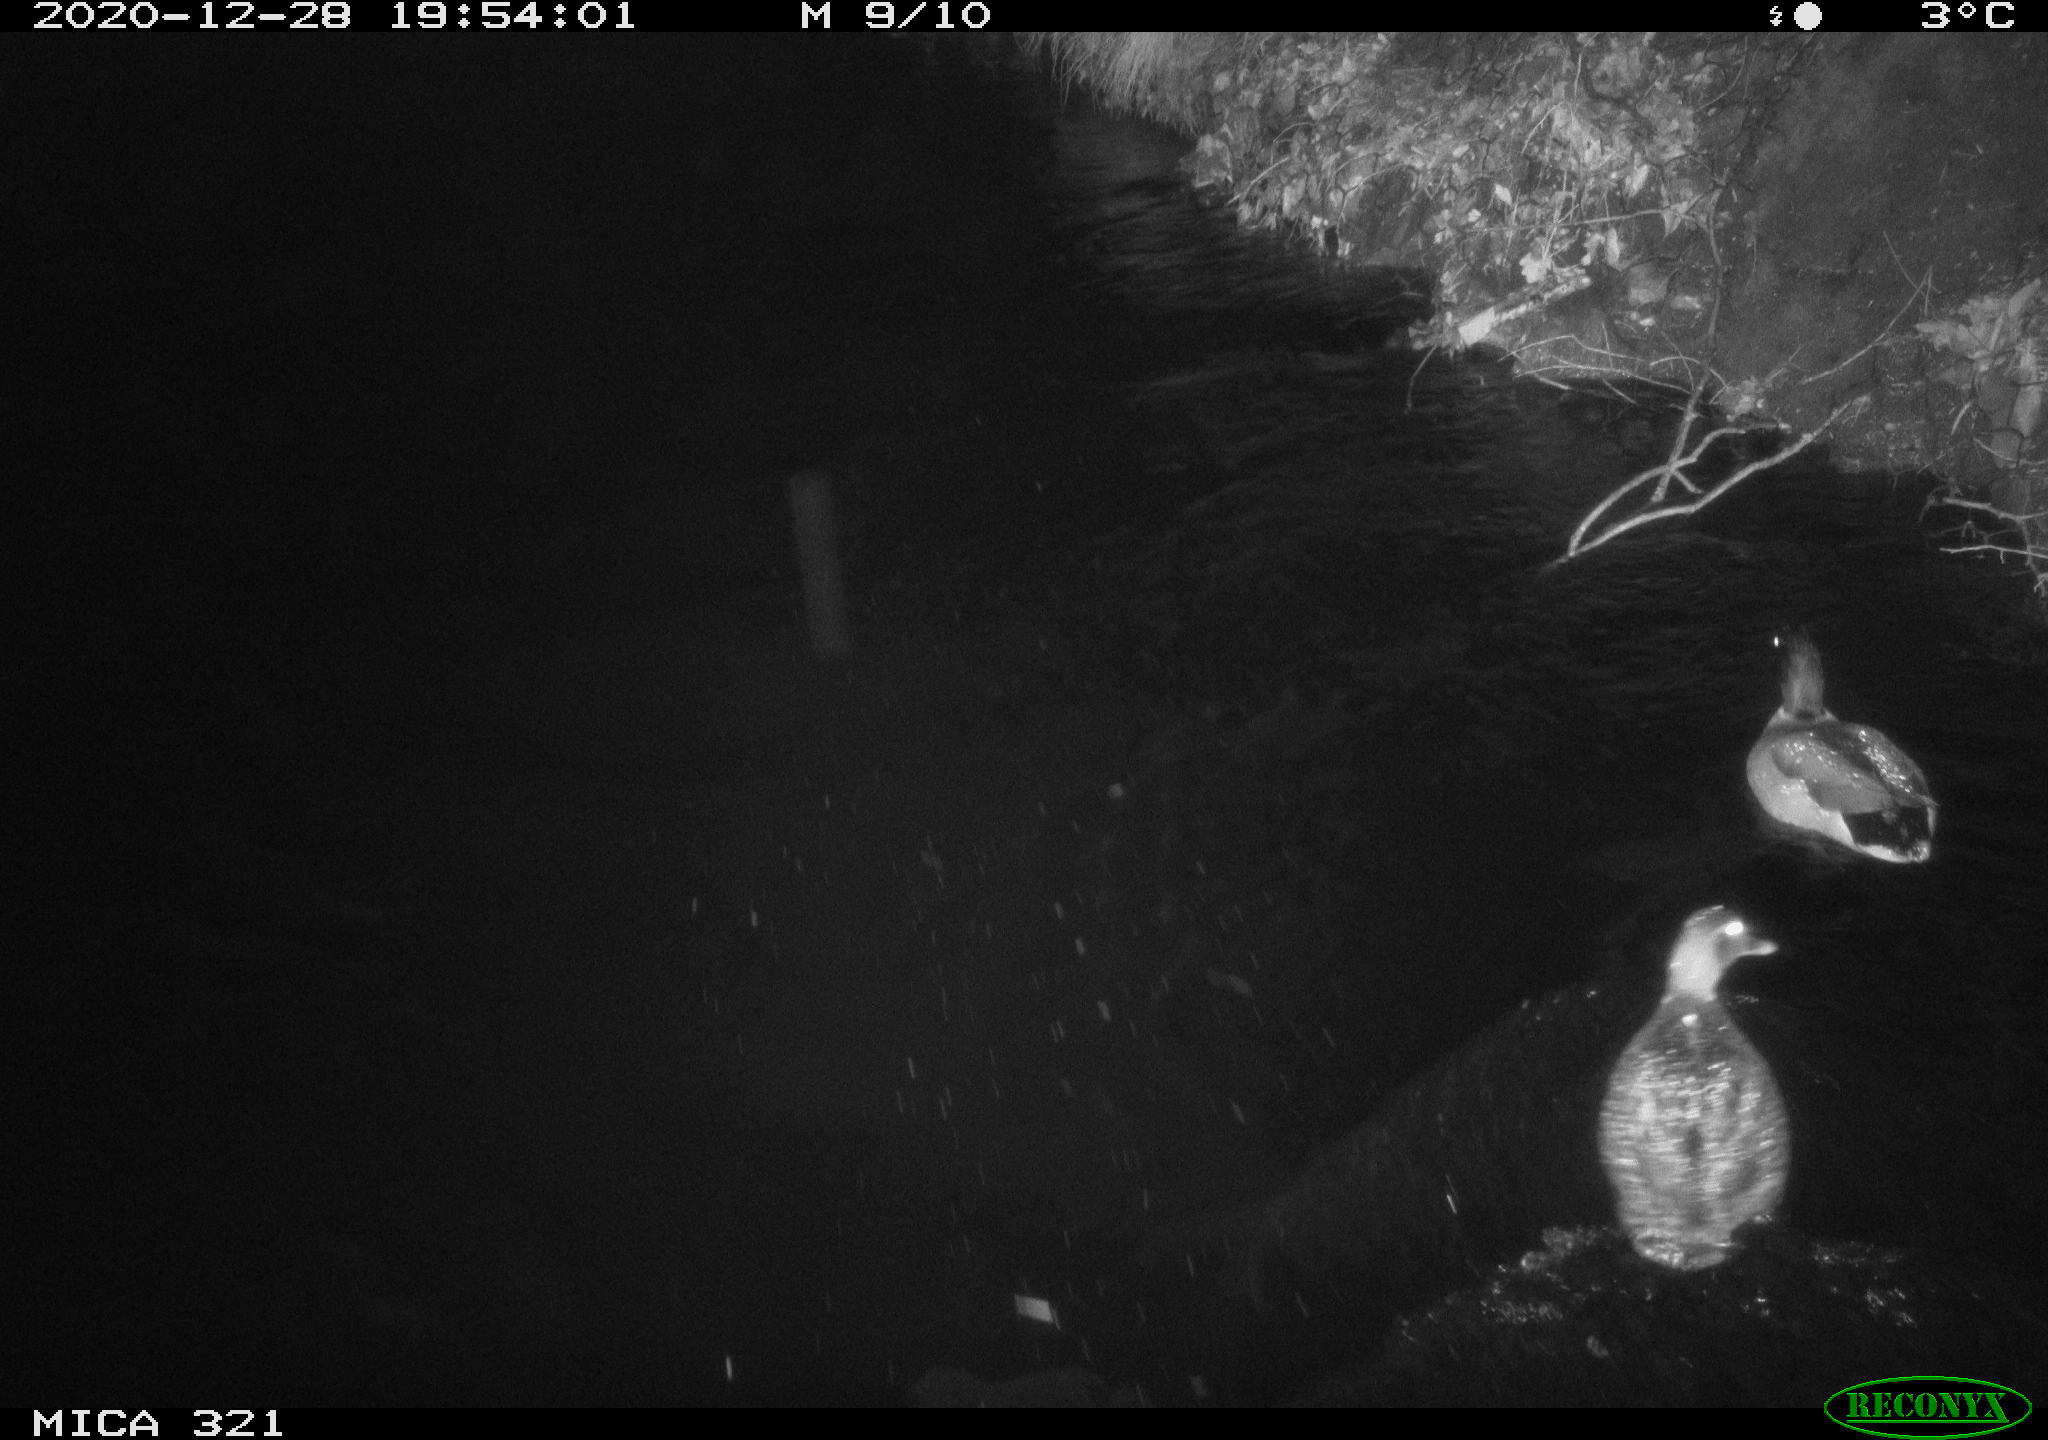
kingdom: Animalia
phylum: Chordata
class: Aves
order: Anseriformes
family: Anatidae
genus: Anas
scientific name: Anas platyrhynchos
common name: Mallard
